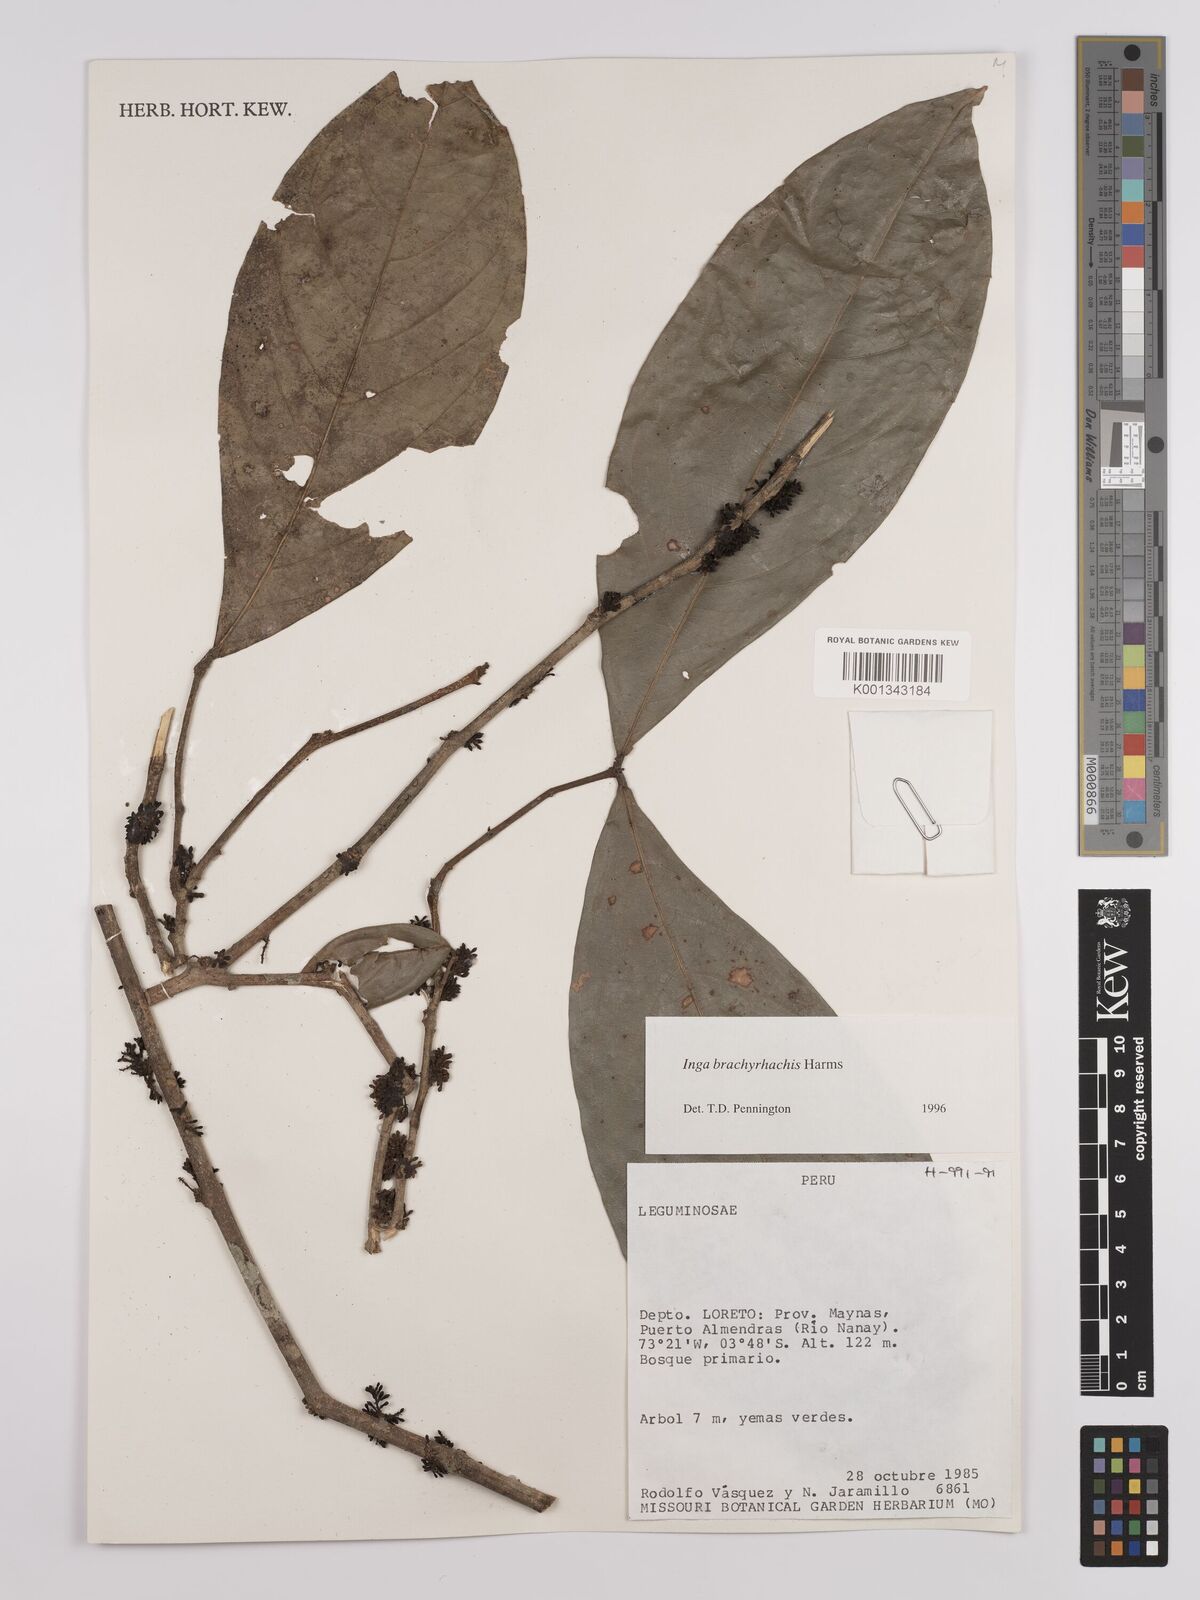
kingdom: Plantae
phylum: Tracheophyta
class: Magnoliopsida
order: Fabales
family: Fabaceae
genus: Inga
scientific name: Inga brachyrhachis
